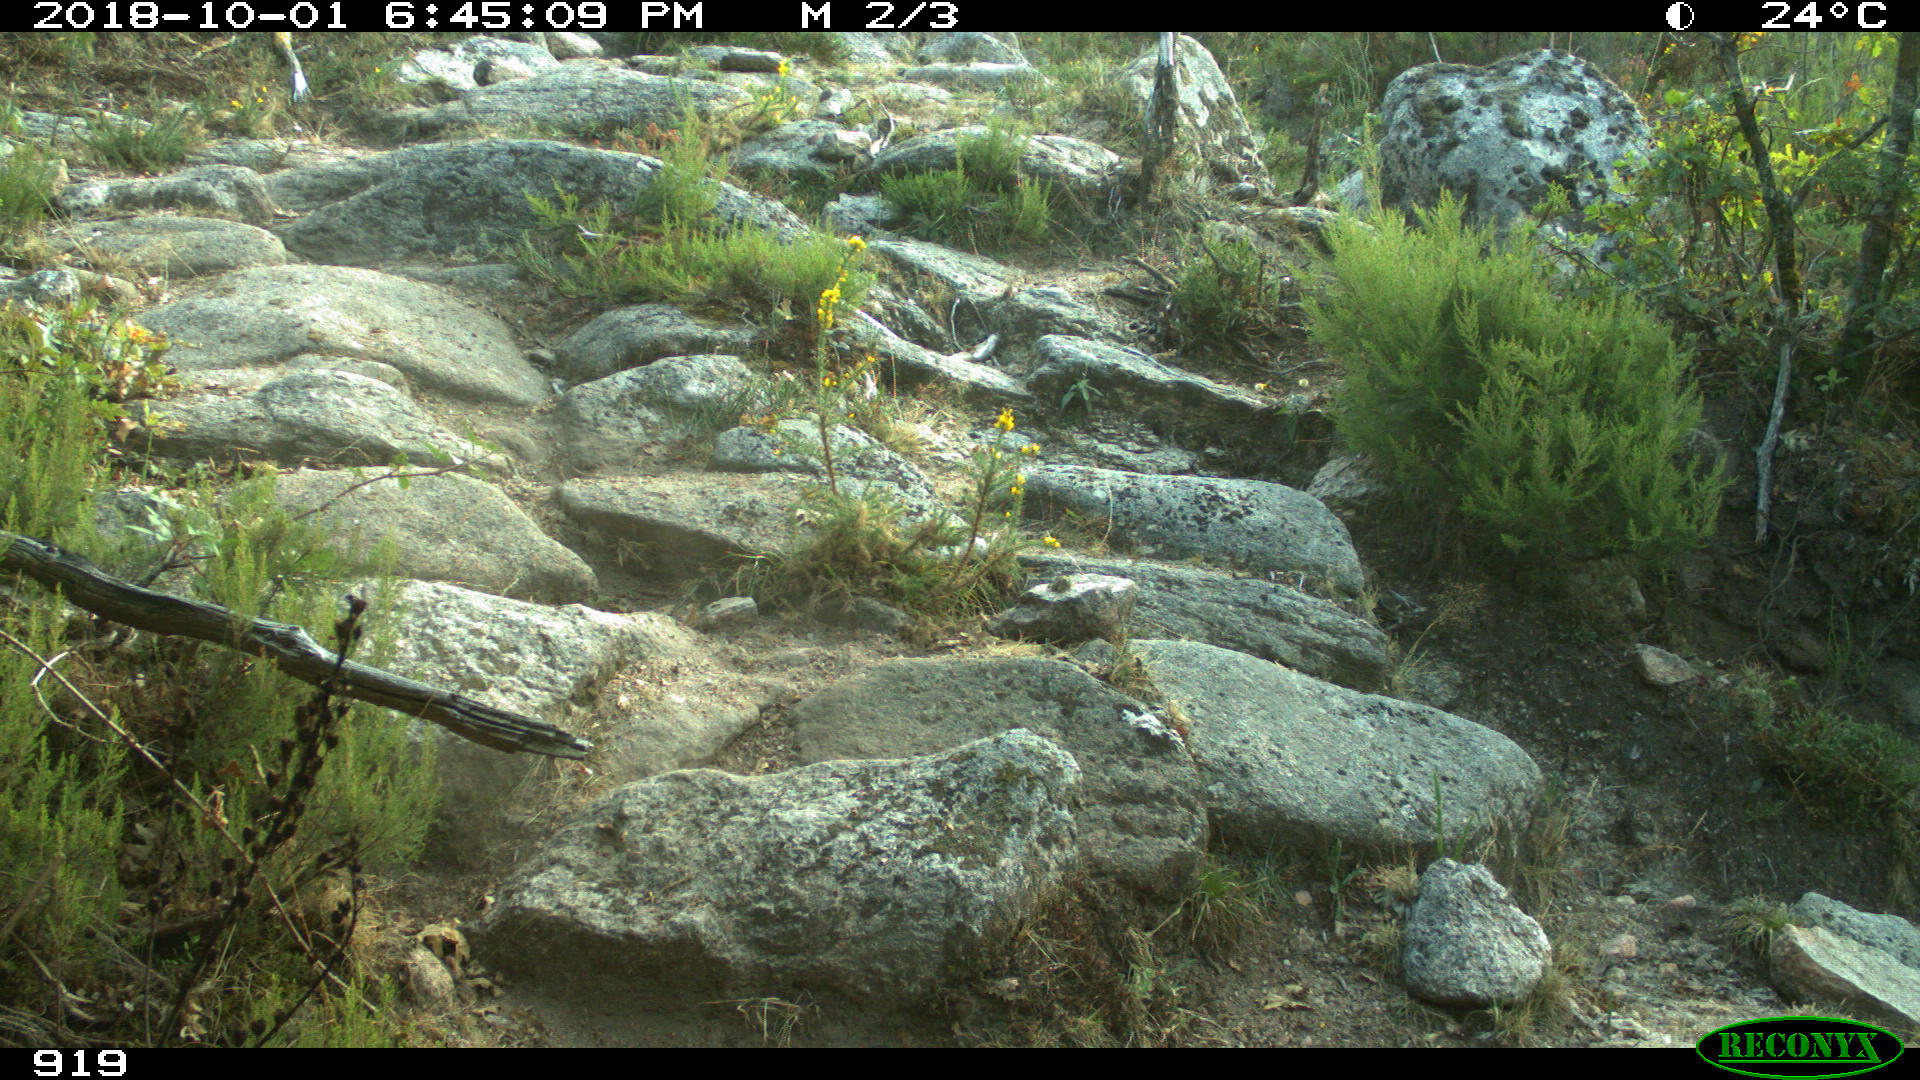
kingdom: Animalia
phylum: Chordata
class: Mammalia
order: Artiodactyla
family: Bovidae
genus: Bos
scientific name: Bos taurus
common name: Domesticated cattle
